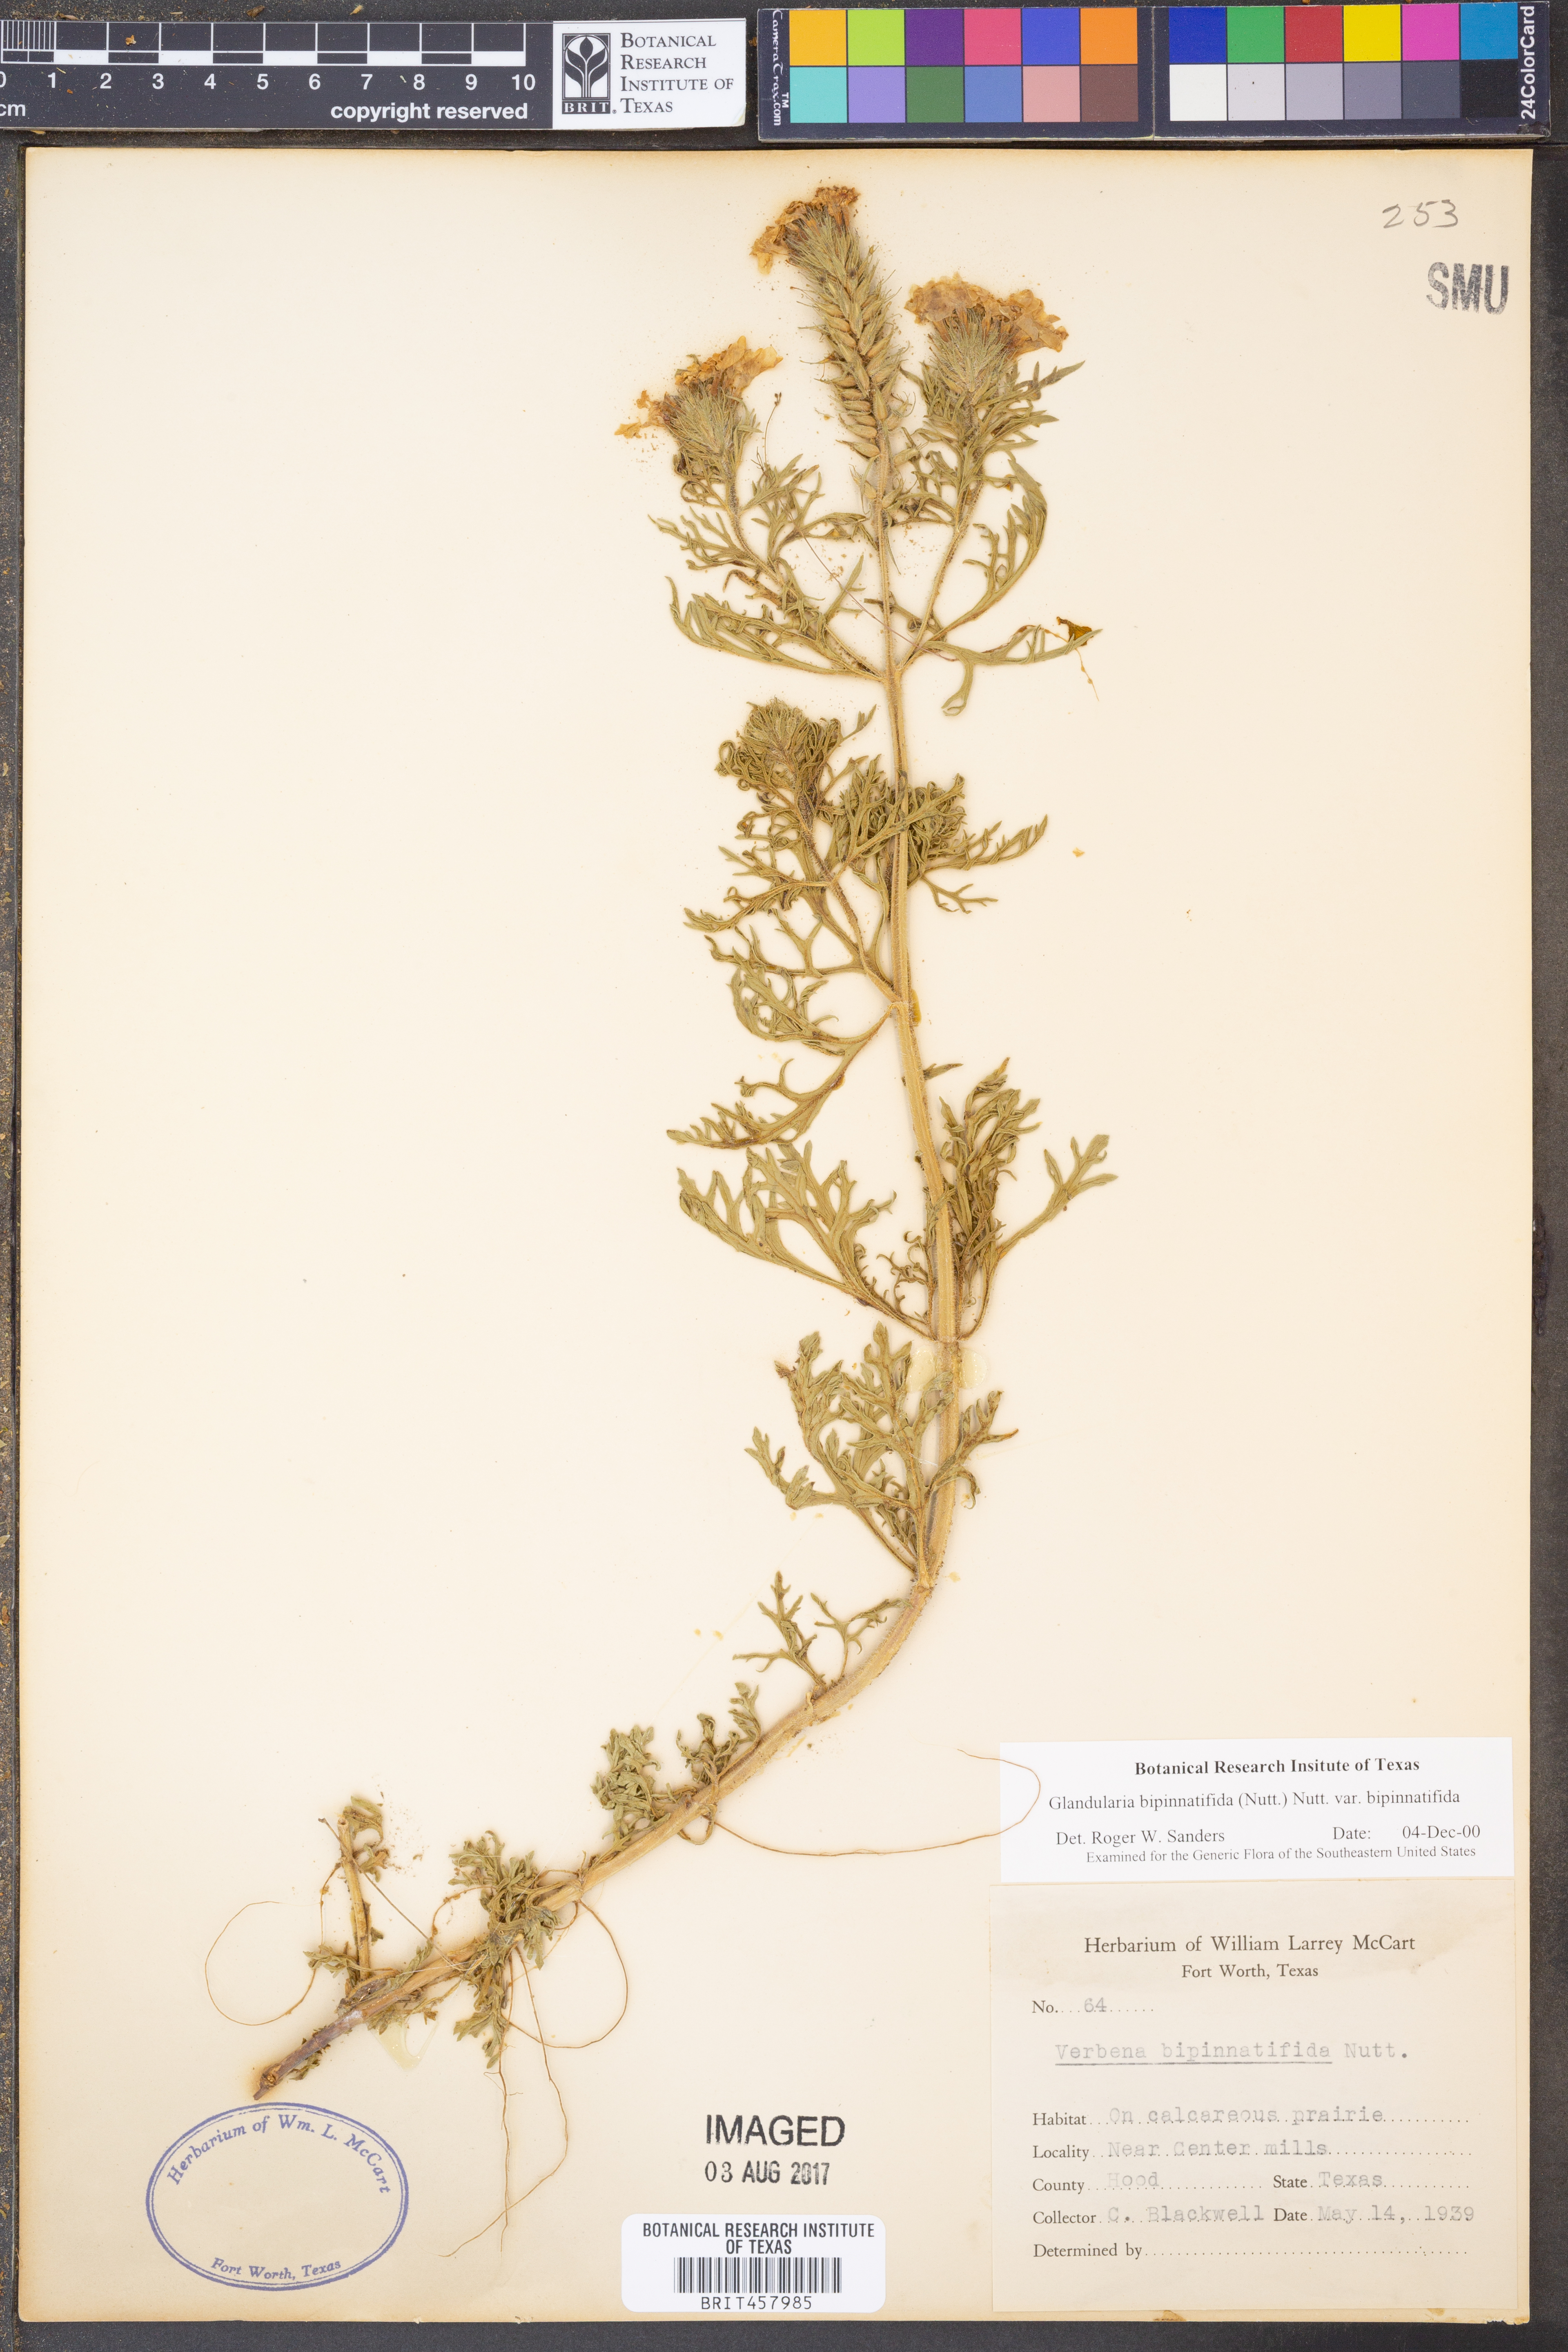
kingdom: Plantae
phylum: Tracheophyta
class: Magnoliopsida
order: Lamiales
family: Verbenaceae
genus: Verbena
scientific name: Verbena bipinnatifida
